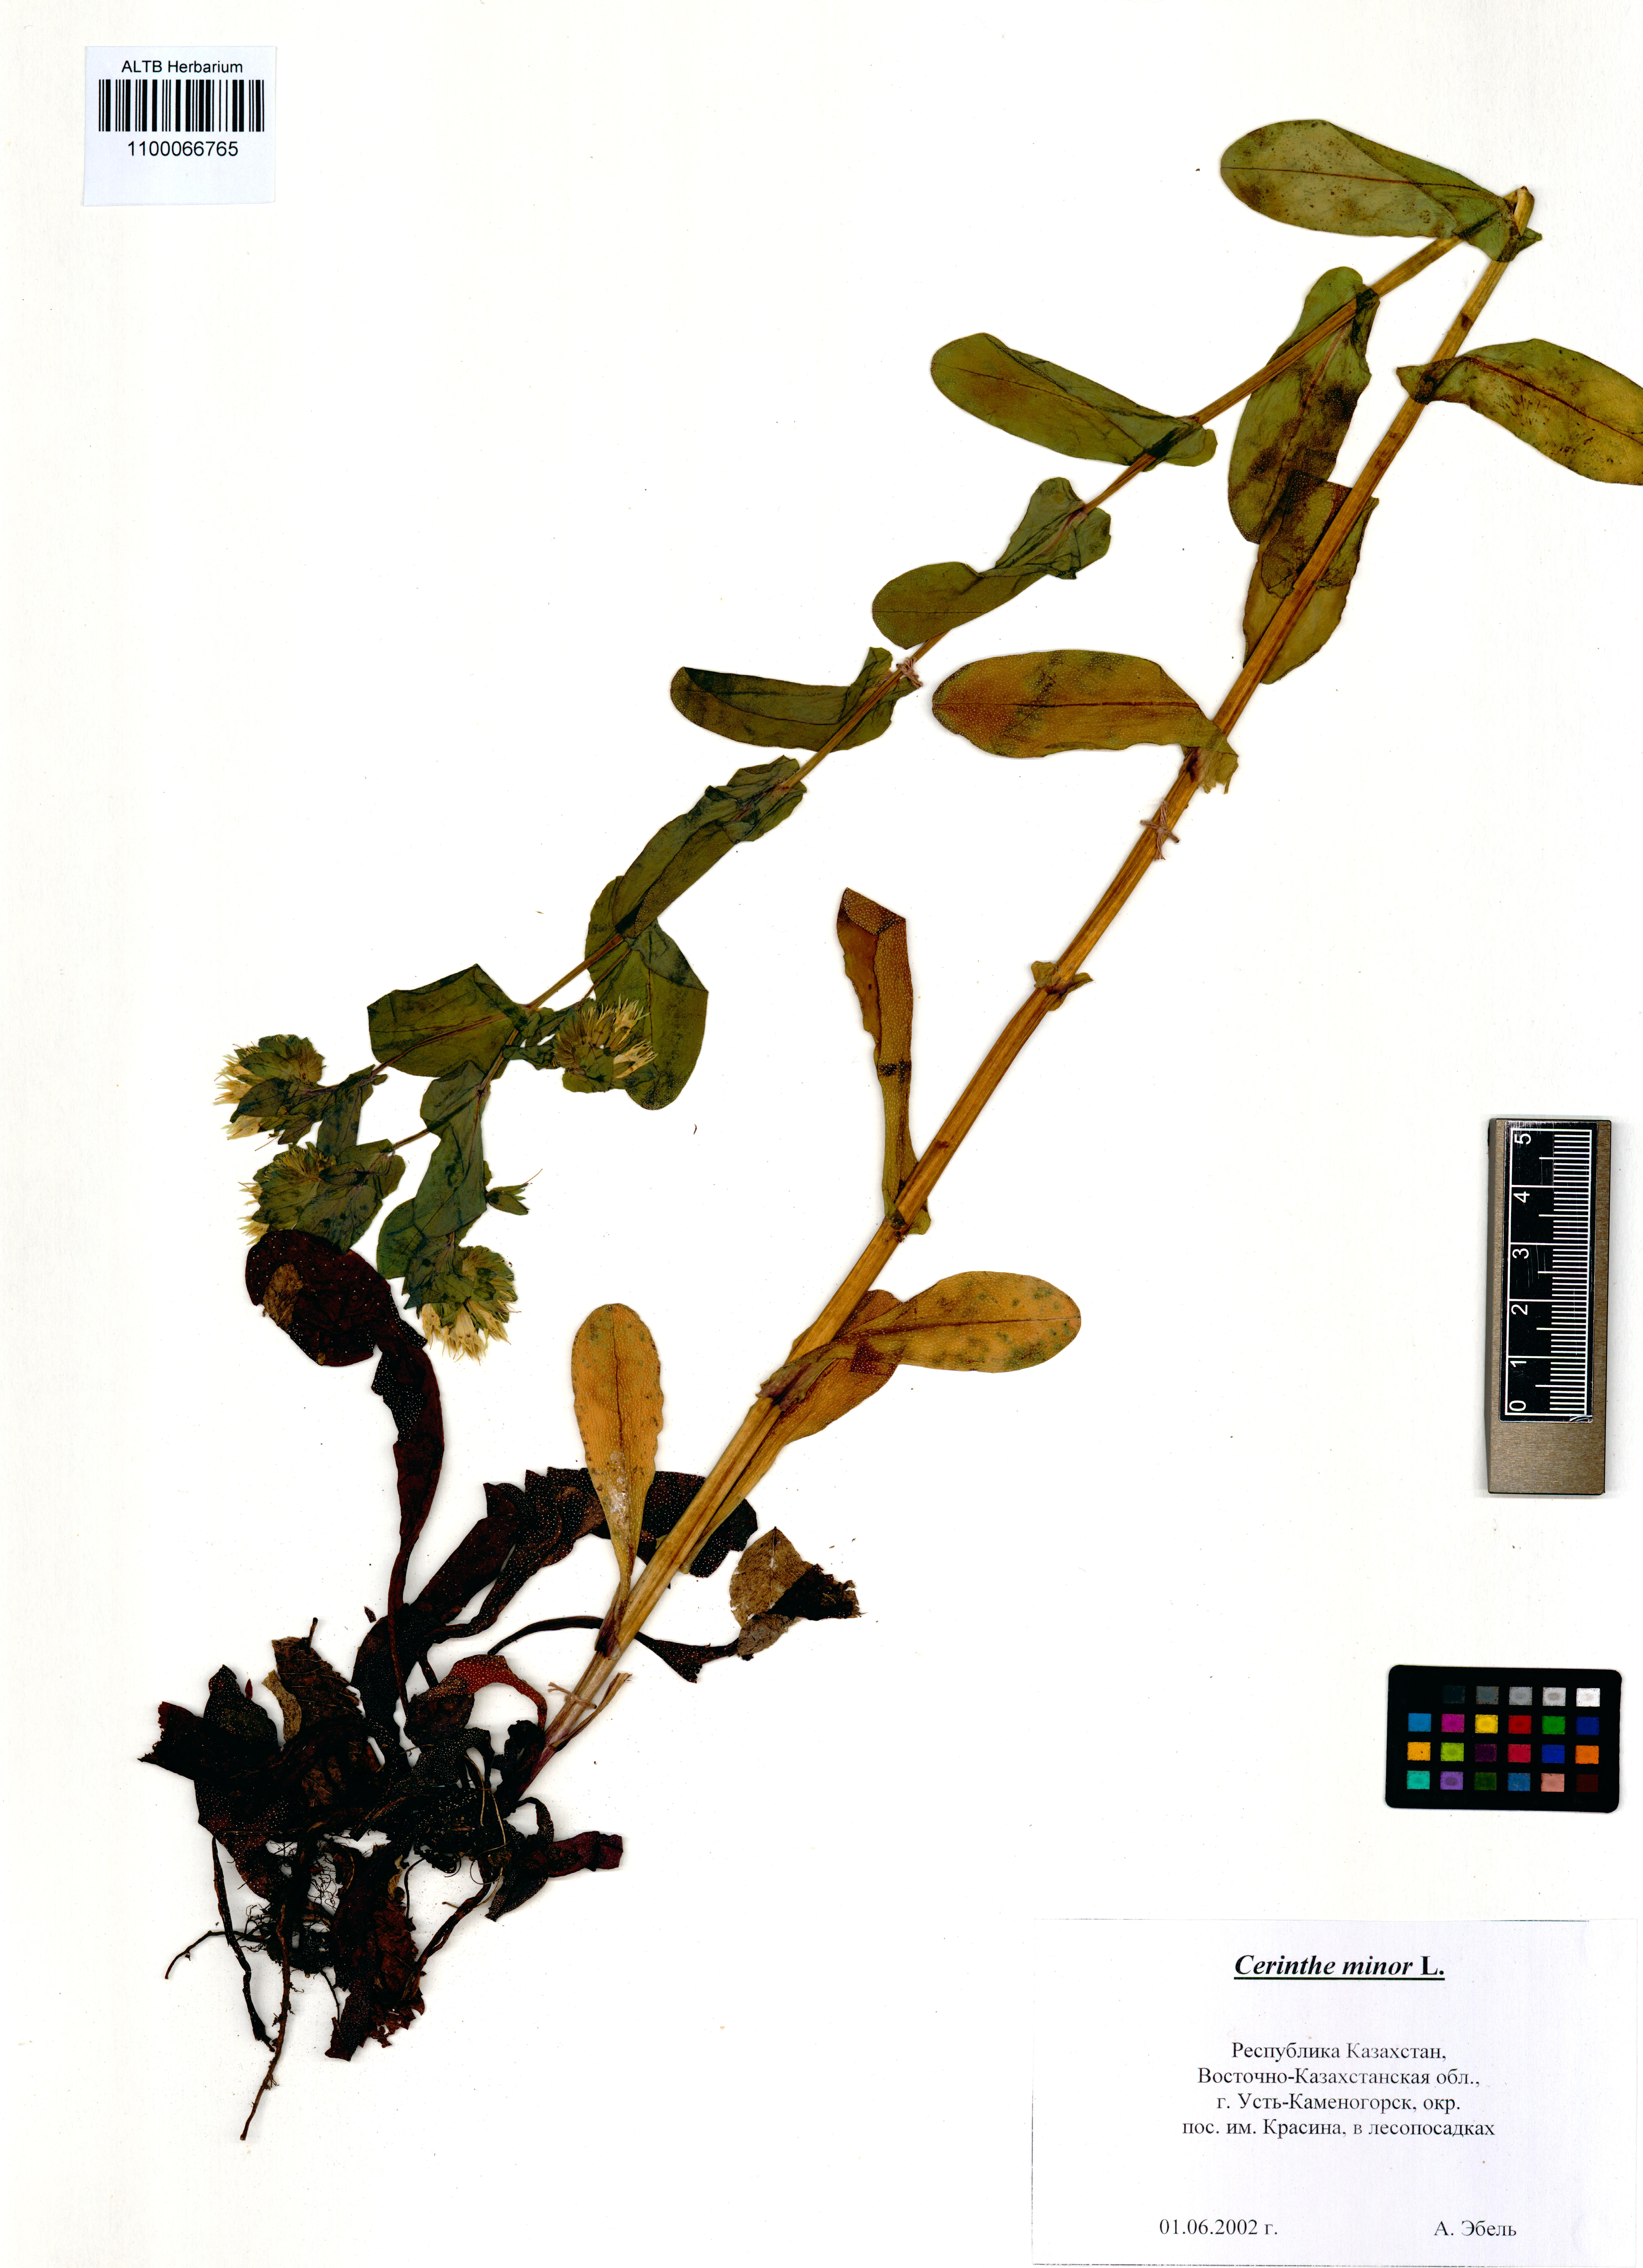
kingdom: Plantae
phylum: Tracheophyta
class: Magnoliopsida
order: Boraginales
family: Boraginaceae
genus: Cerinthe
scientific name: Cerinthe minor
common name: Lesser honeywort
